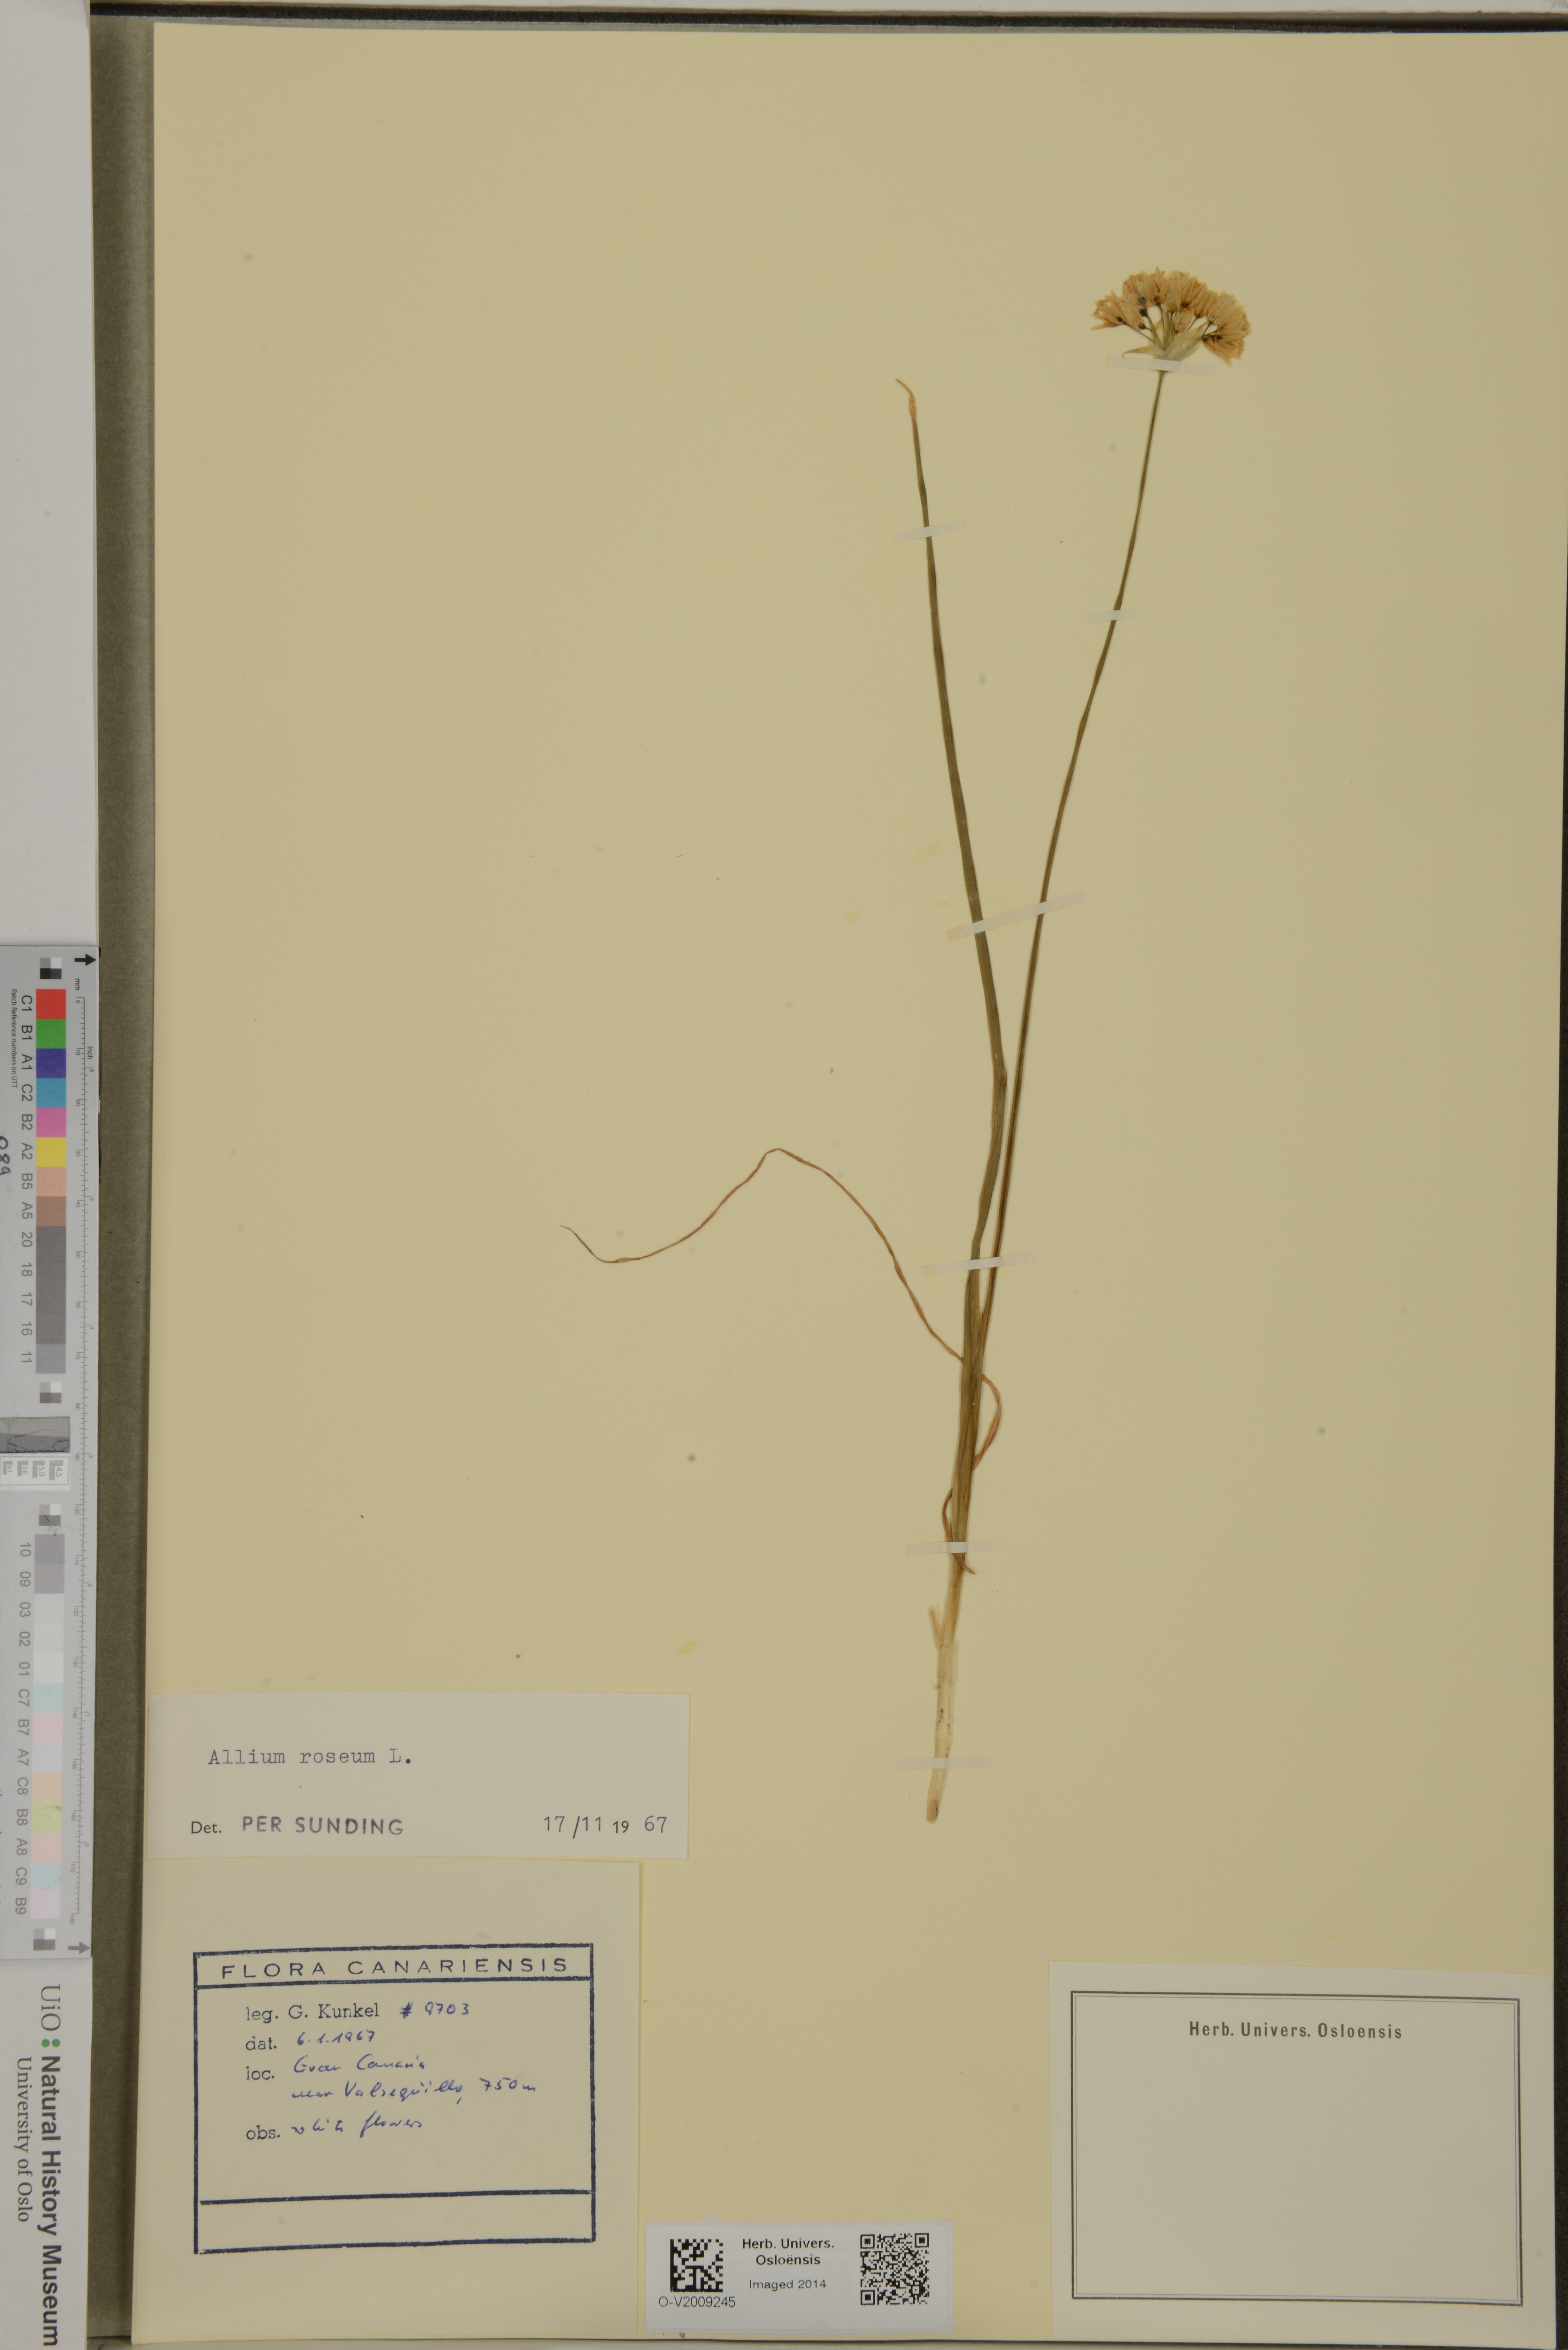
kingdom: Plantae
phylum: Tracheophyta
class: Liliopsida
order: Asparagales
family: Amaryllidaceae
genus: Allium
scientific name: Allium roseum
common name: Rosy garlic
